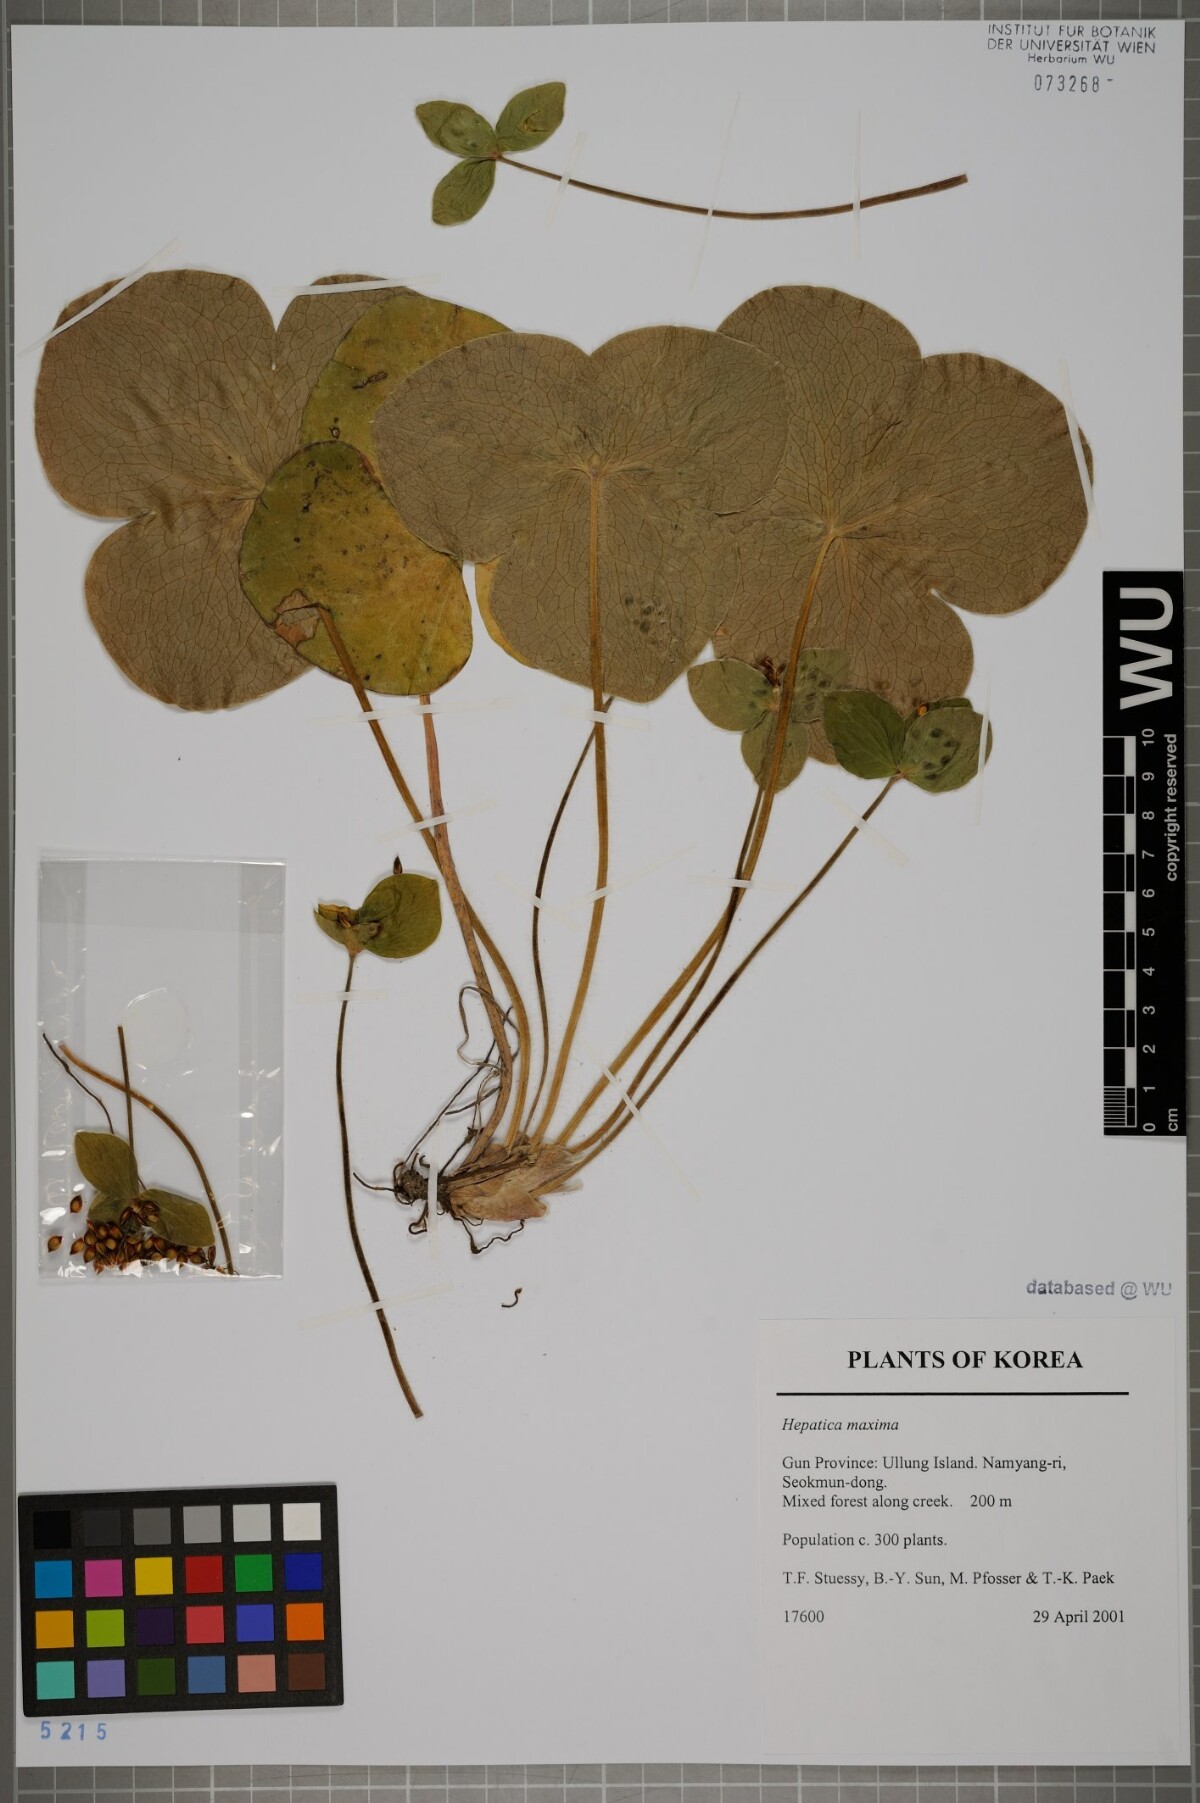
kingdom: Plantae
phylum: Tracheophyta
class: Magnoliopsida
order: Ranunculales
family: Ranunculaceae
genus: Hepatica
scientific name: Hepatica maxima
